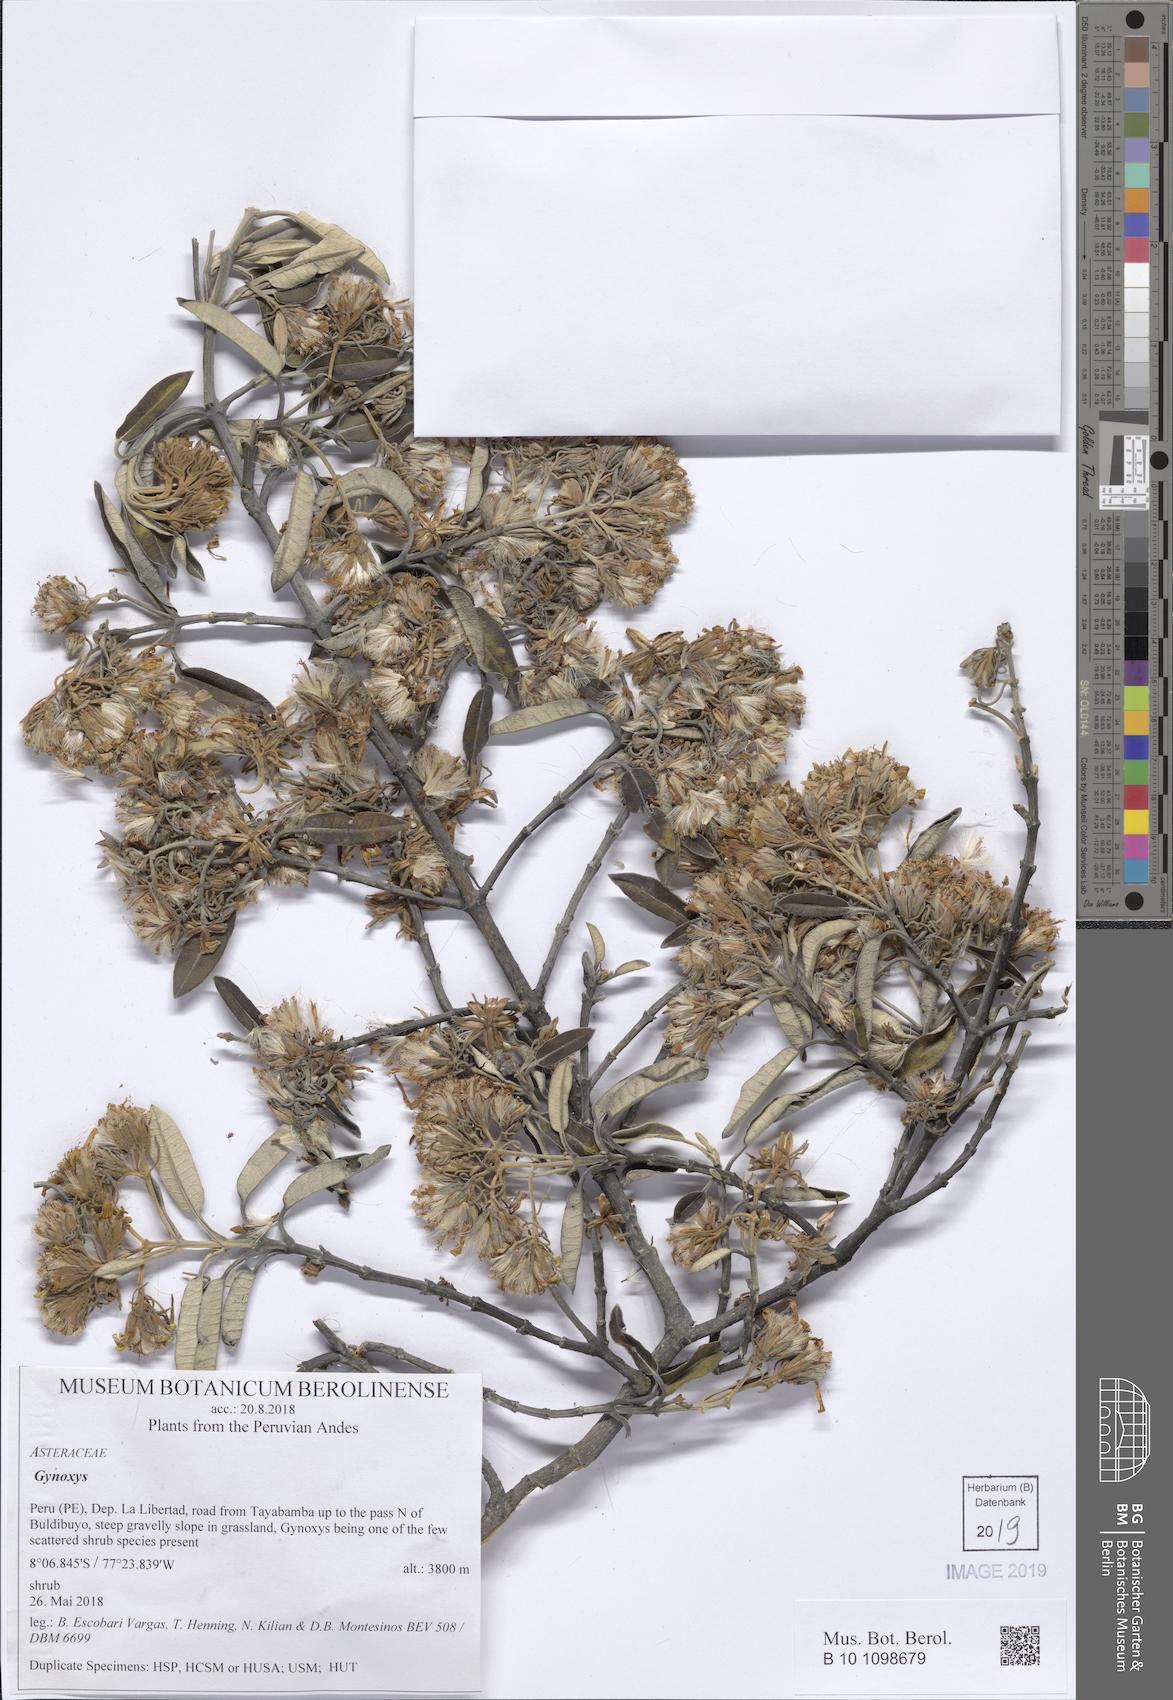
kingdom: Plantae
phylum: Tracheophyta
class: Magnoliopsida
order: Asterales
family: Asteraceae
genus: Gynoxys
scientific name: Gynoxys
